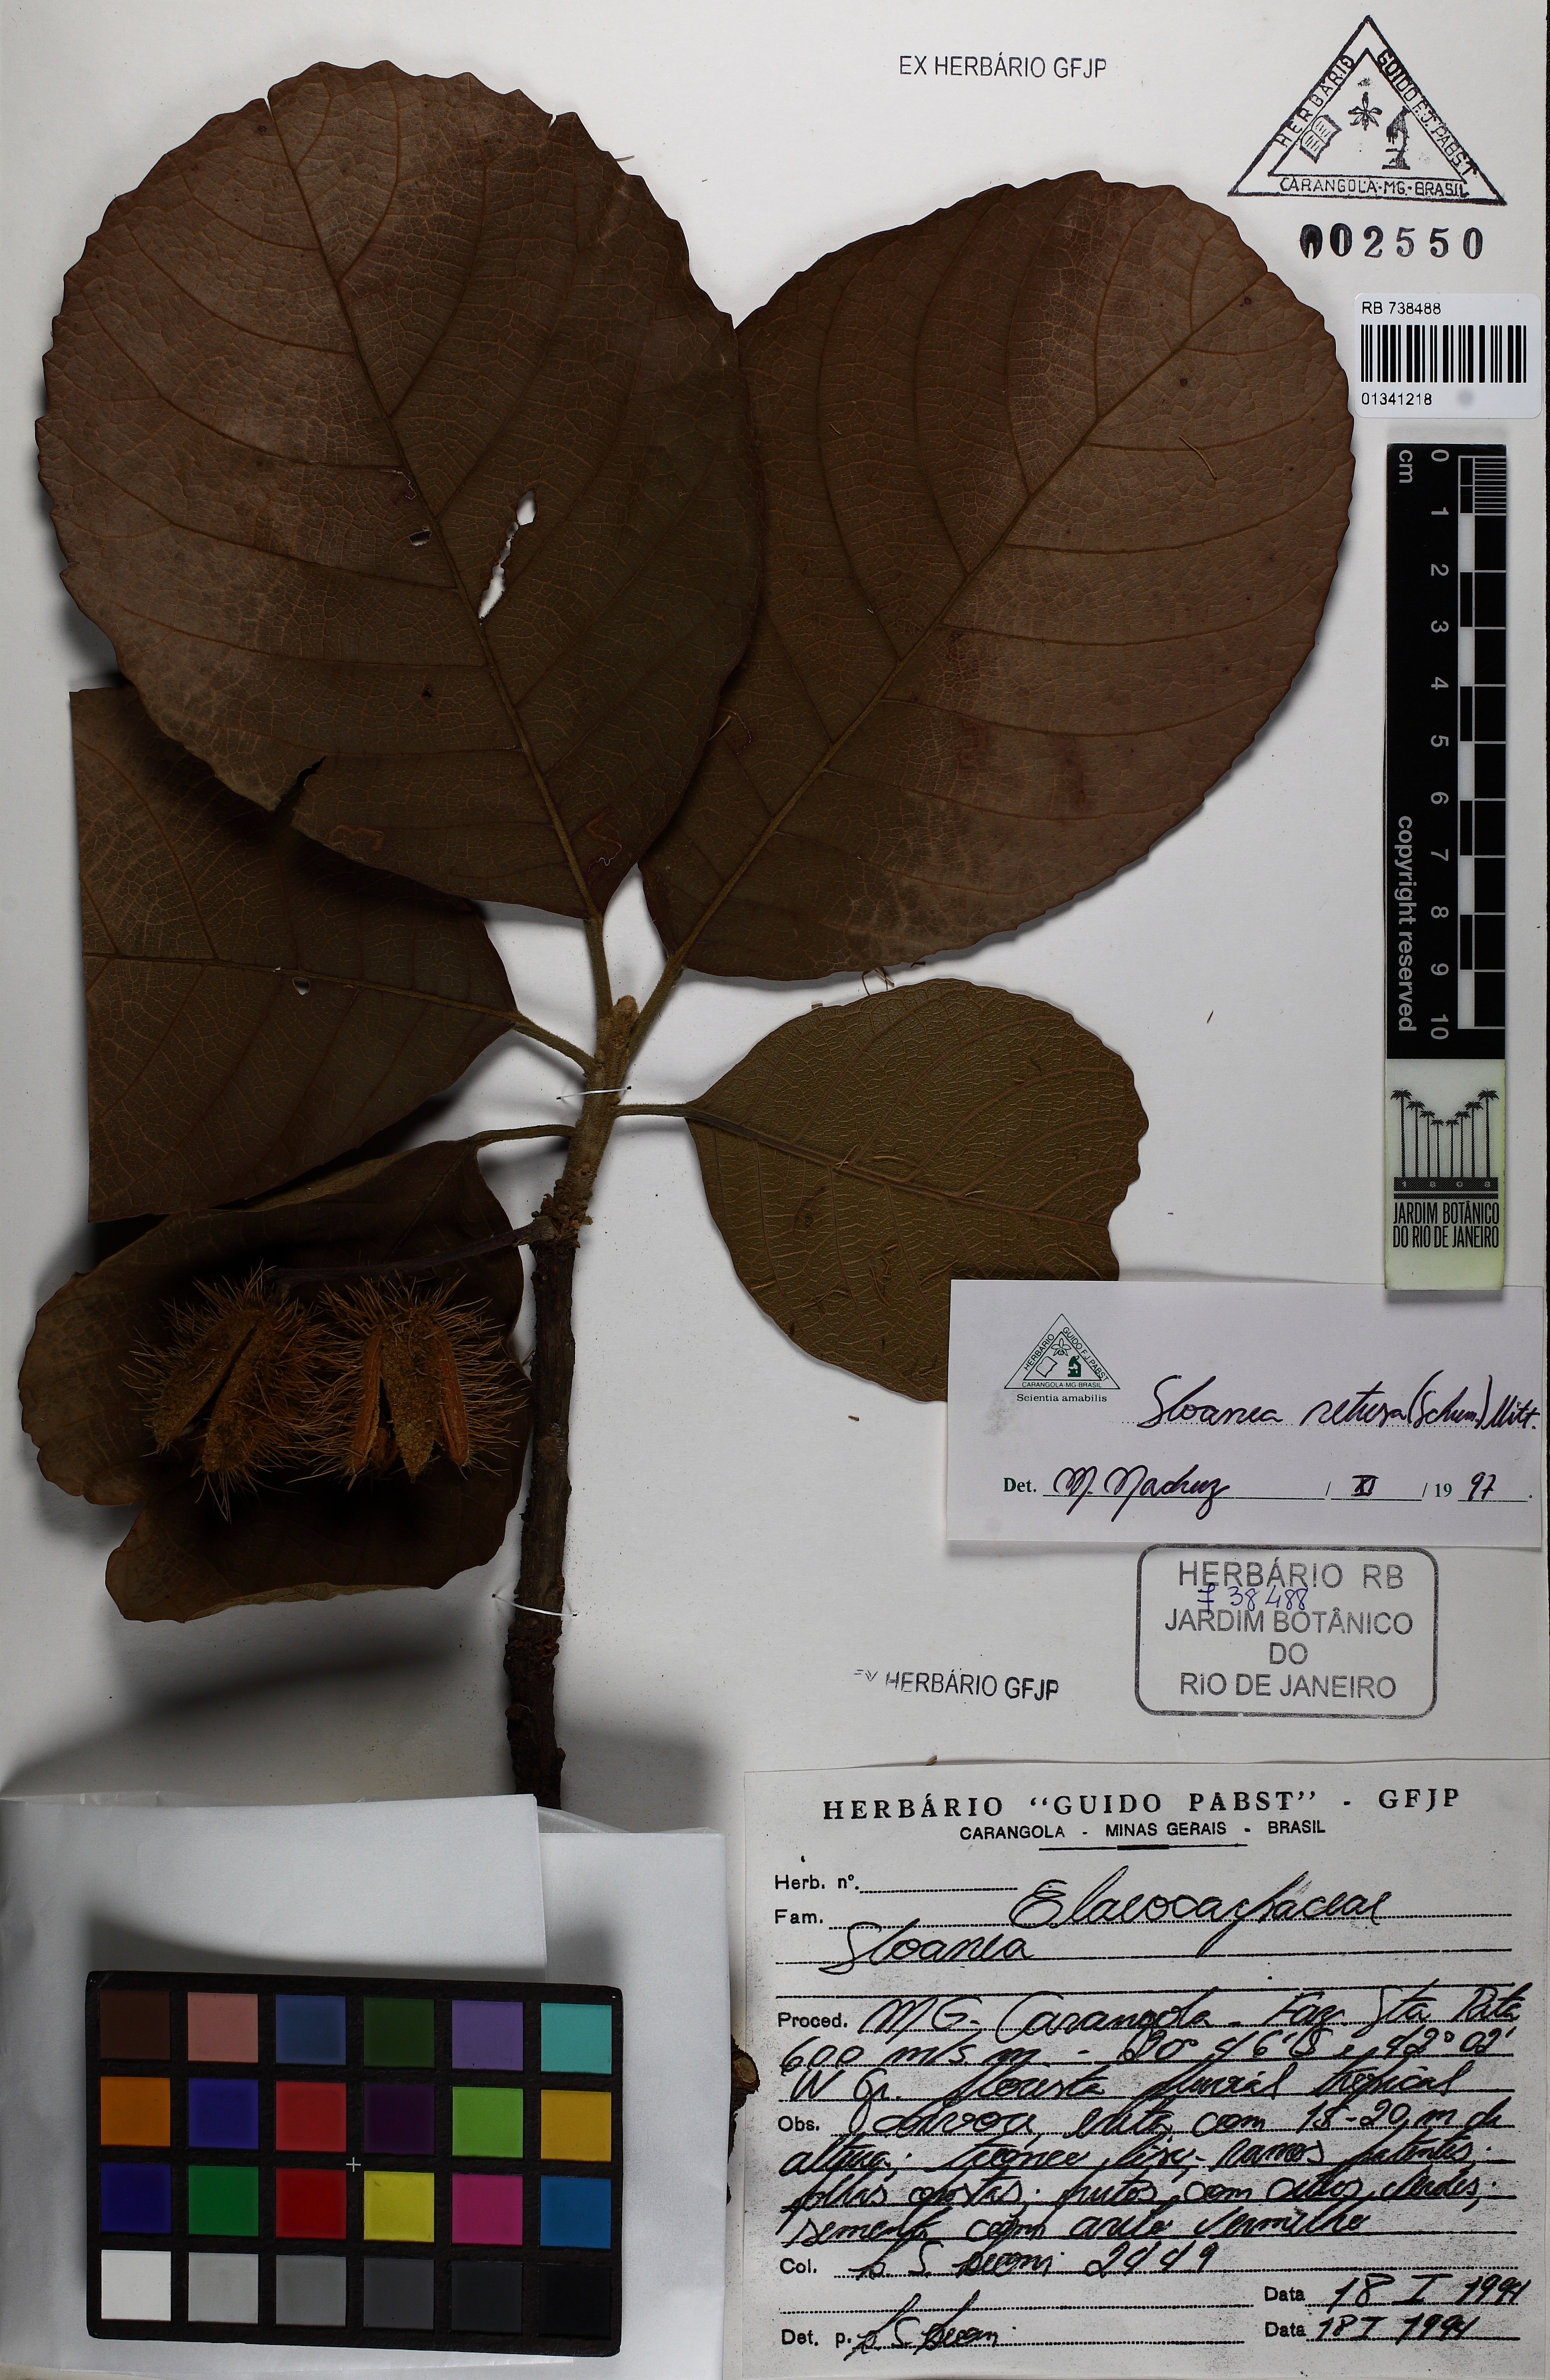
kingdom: Plantae
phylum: Tracheophyta
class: Magnoliopsida
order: Oxalidales
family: Elaeocarpaceae
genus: Sloanea
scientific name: Sloanea
